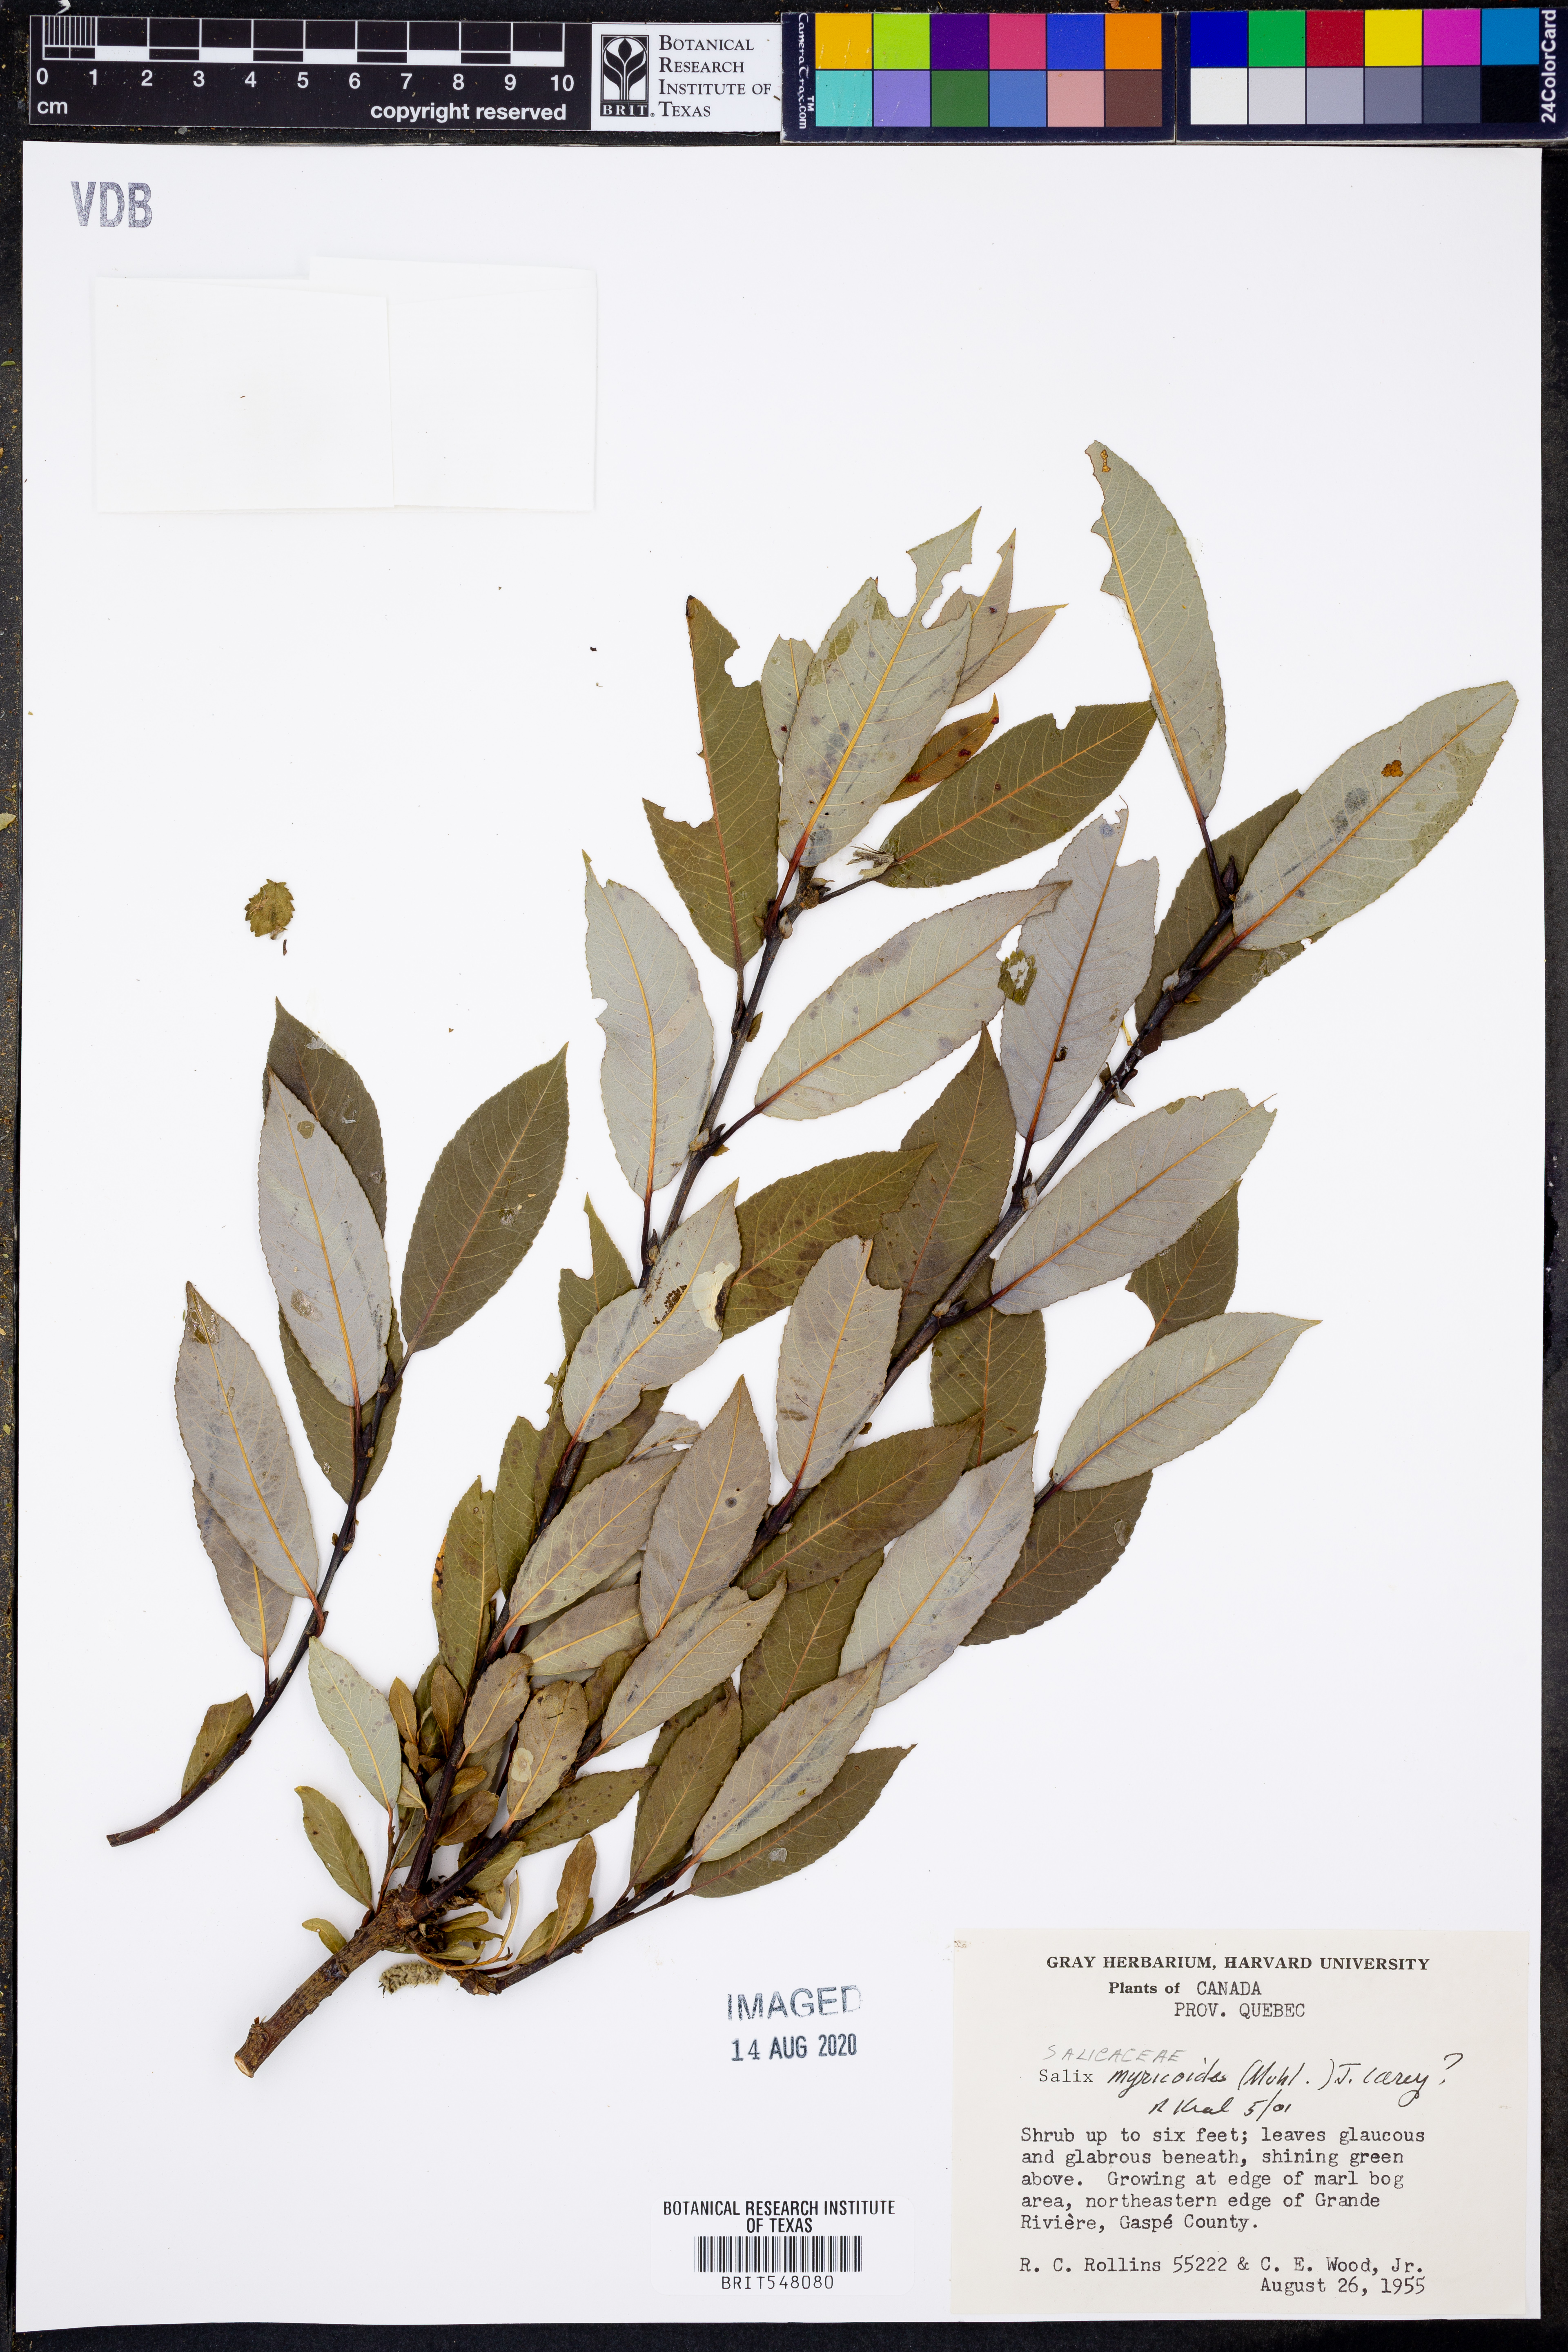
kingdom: Plantae
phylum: Tracheophyta
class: Magnoliopsida
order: Malpighiales
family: Salicaceae
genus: Salix
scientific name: Salix myricoides
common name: Bayberry willow
